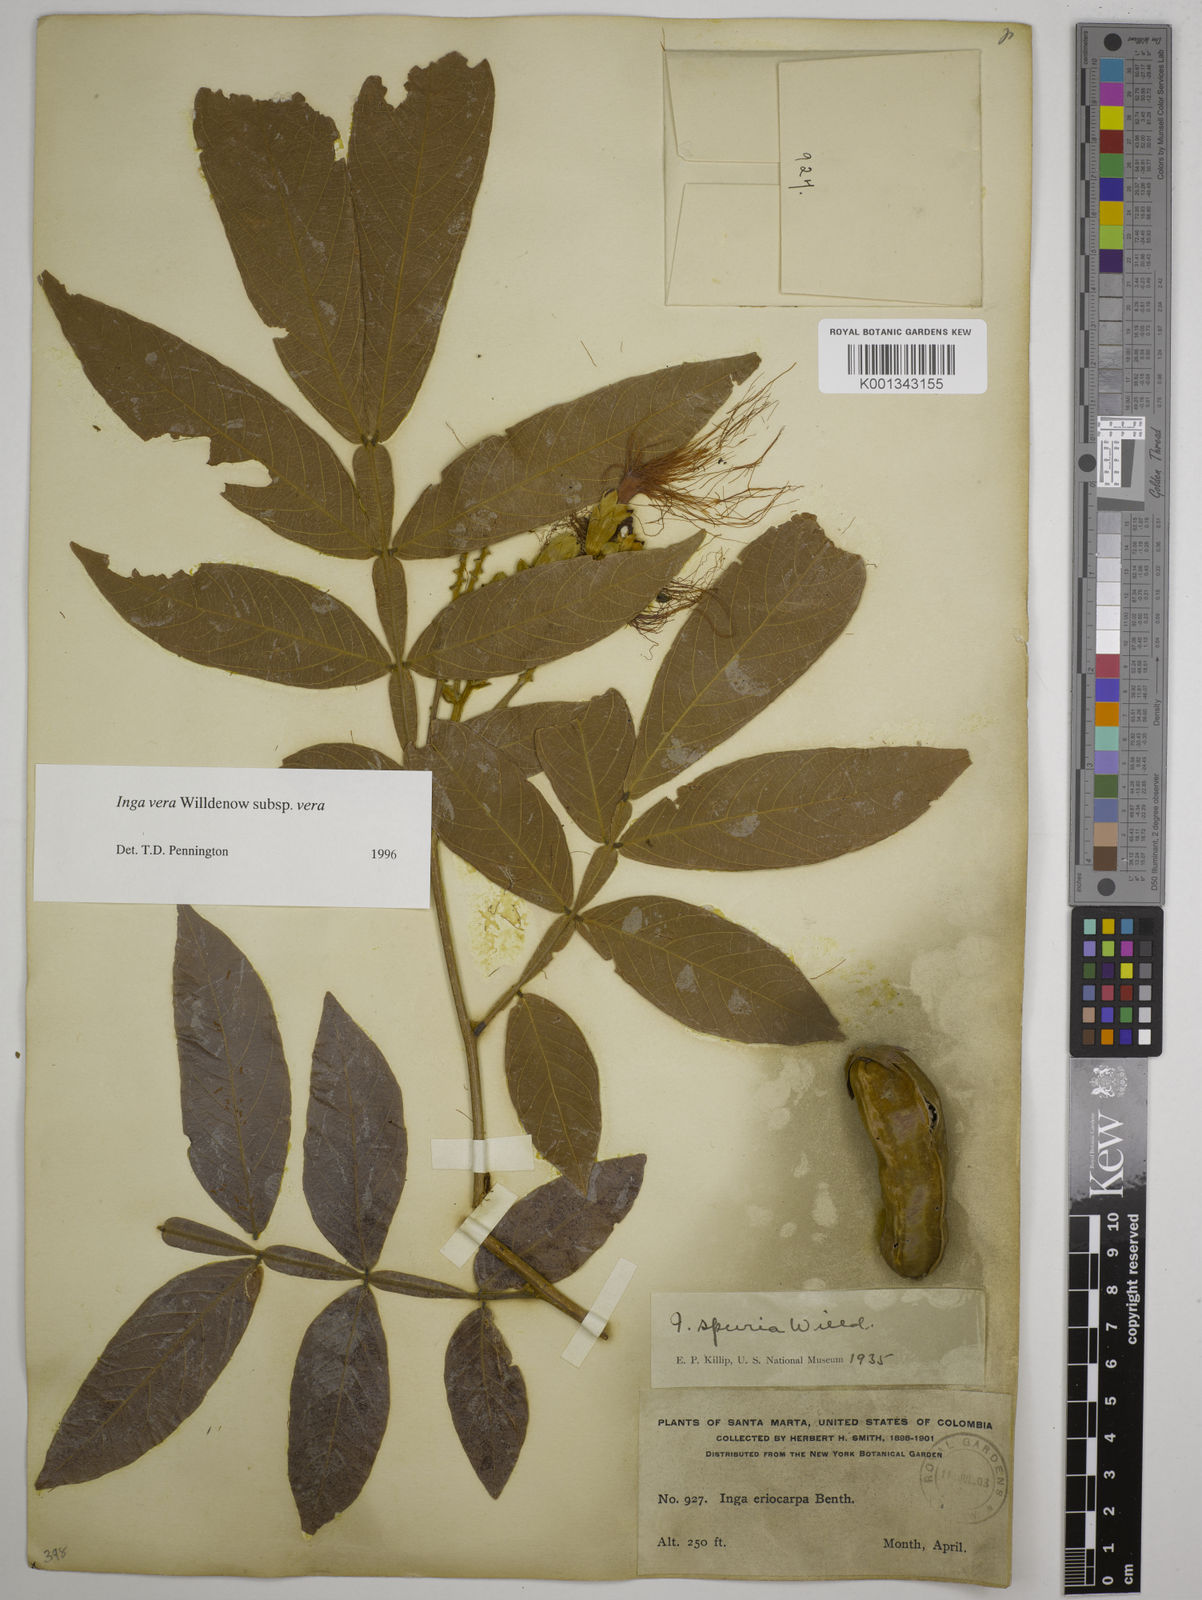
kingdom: Plantae
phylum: Tracheophyta
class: Magnoliopsida
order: Fabales
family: Fabaceae
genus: Inga
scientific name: Inga vera
